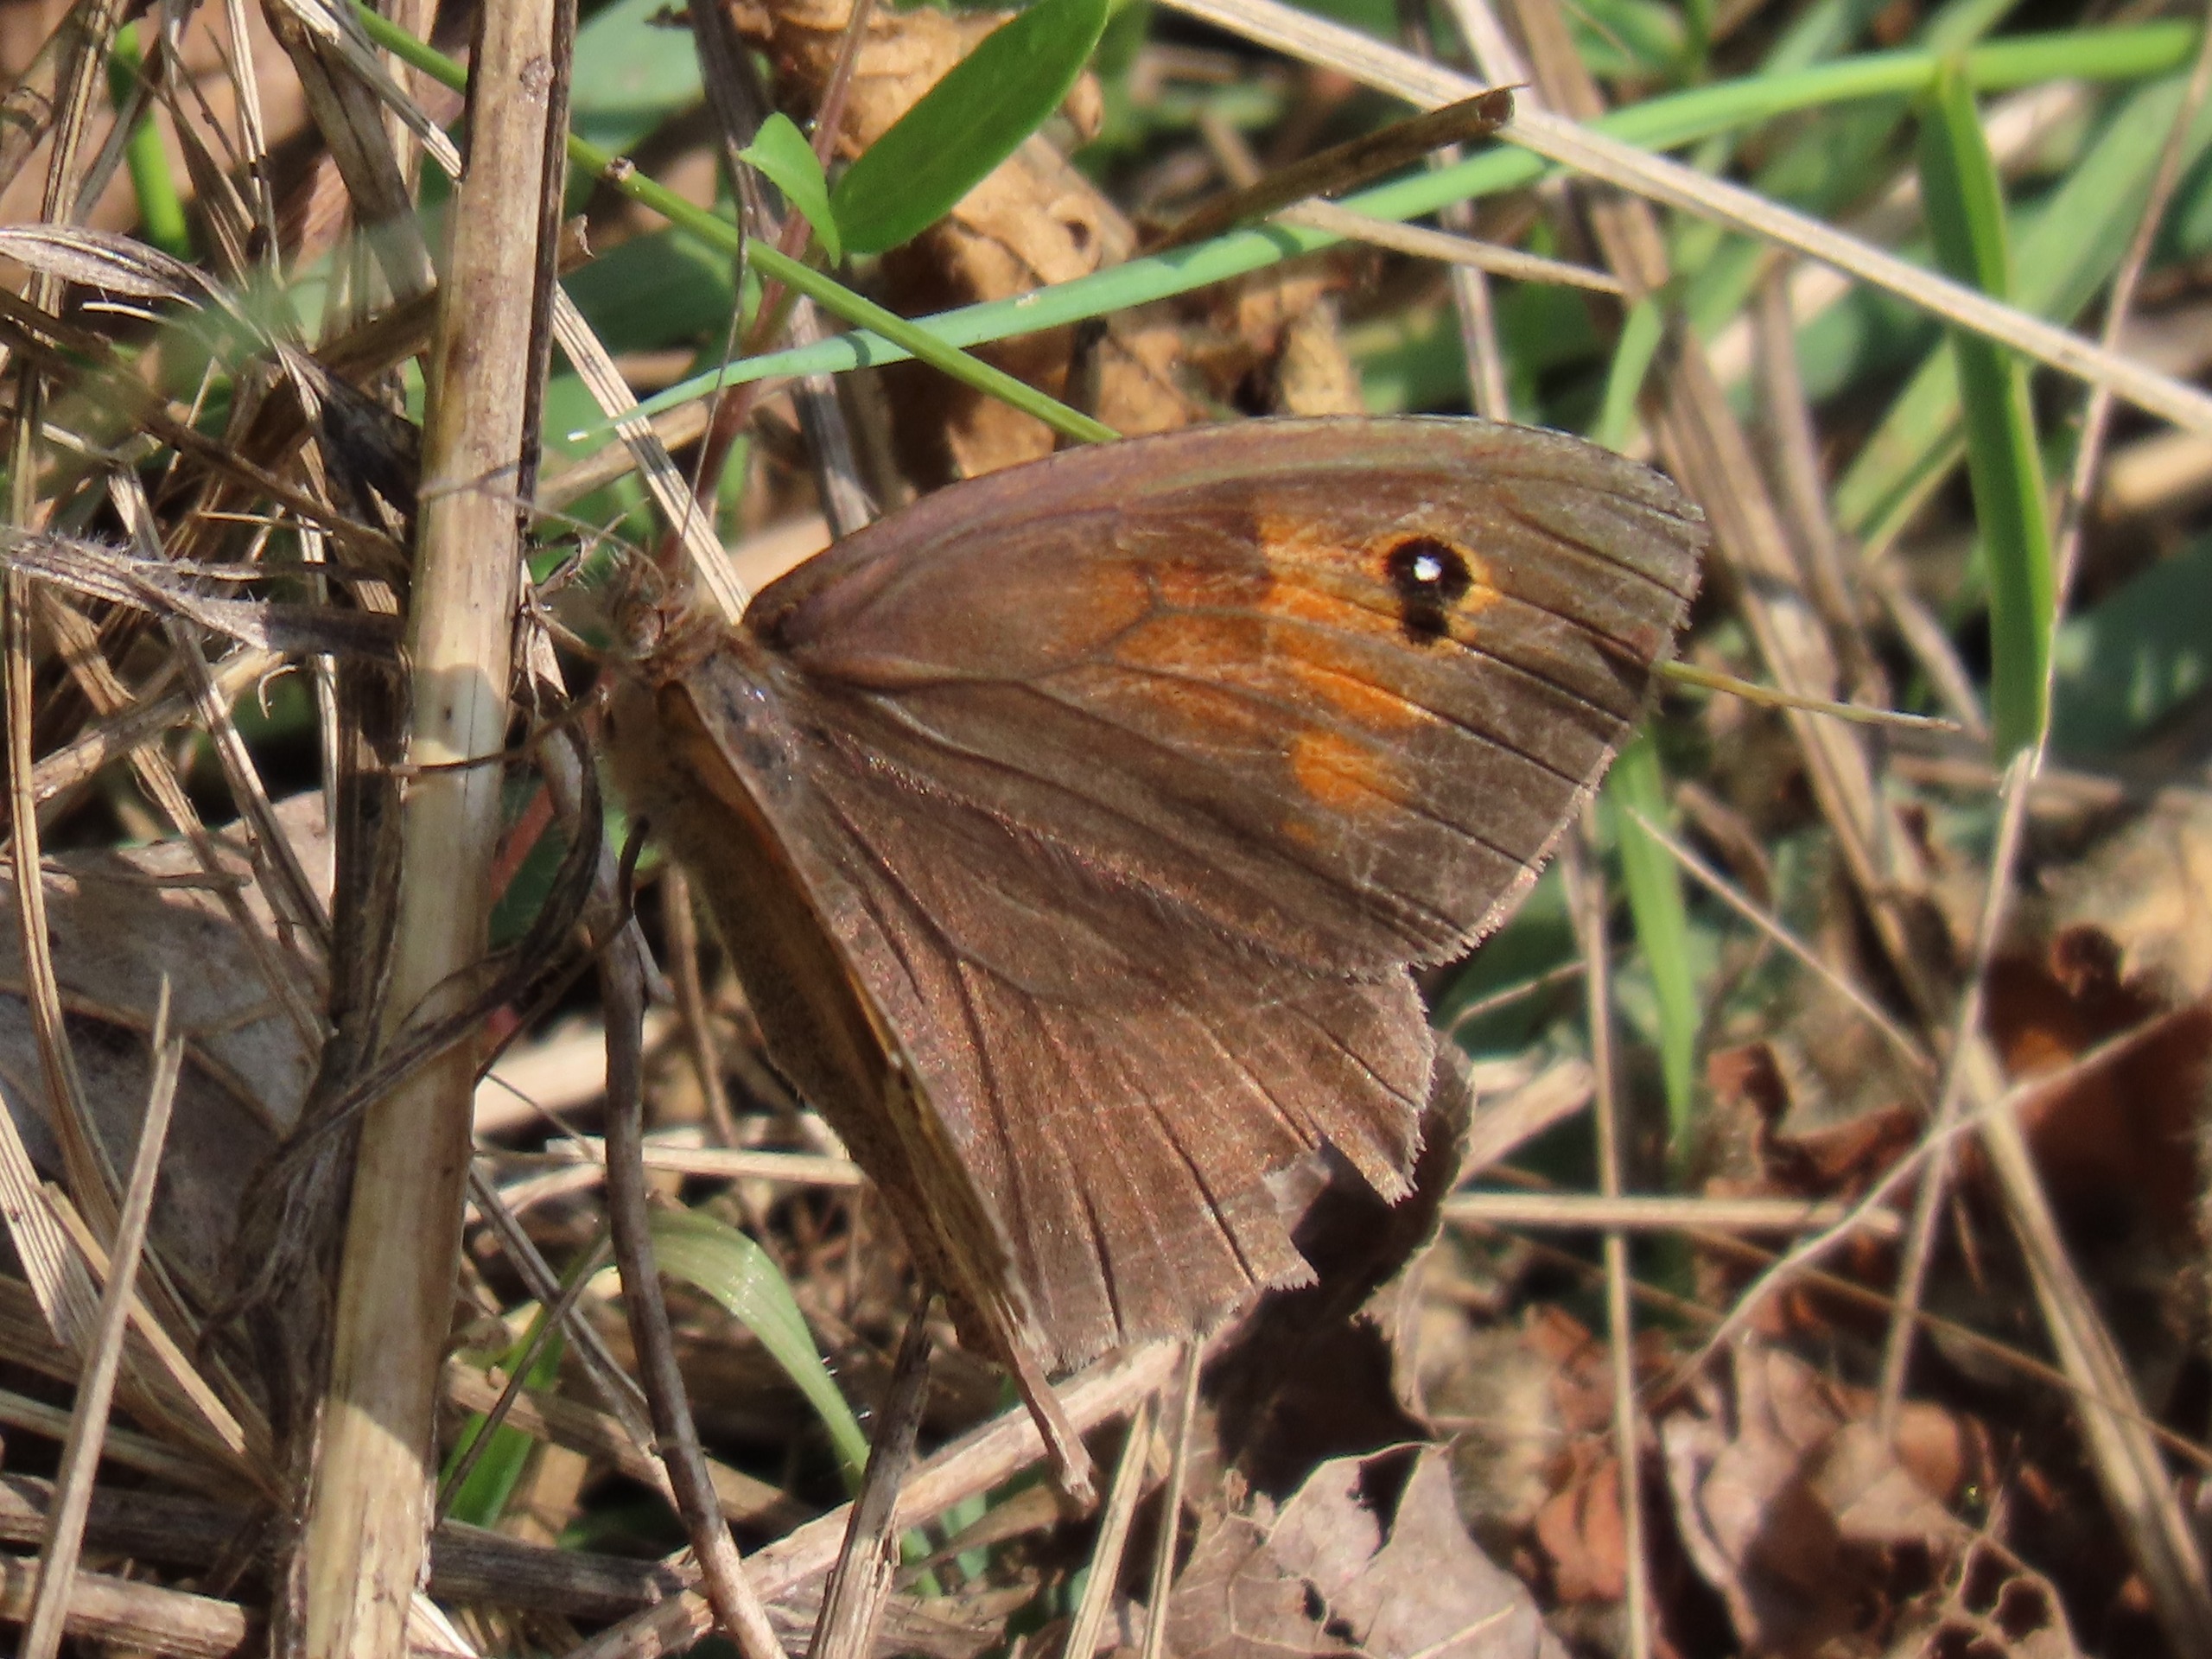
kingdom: Animalia
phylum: Arthropoda
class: Insecta
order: Lepidoptera
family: Nymphalidae
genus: Maniola
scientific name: Maniola jurtina
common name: Græsrandøje
